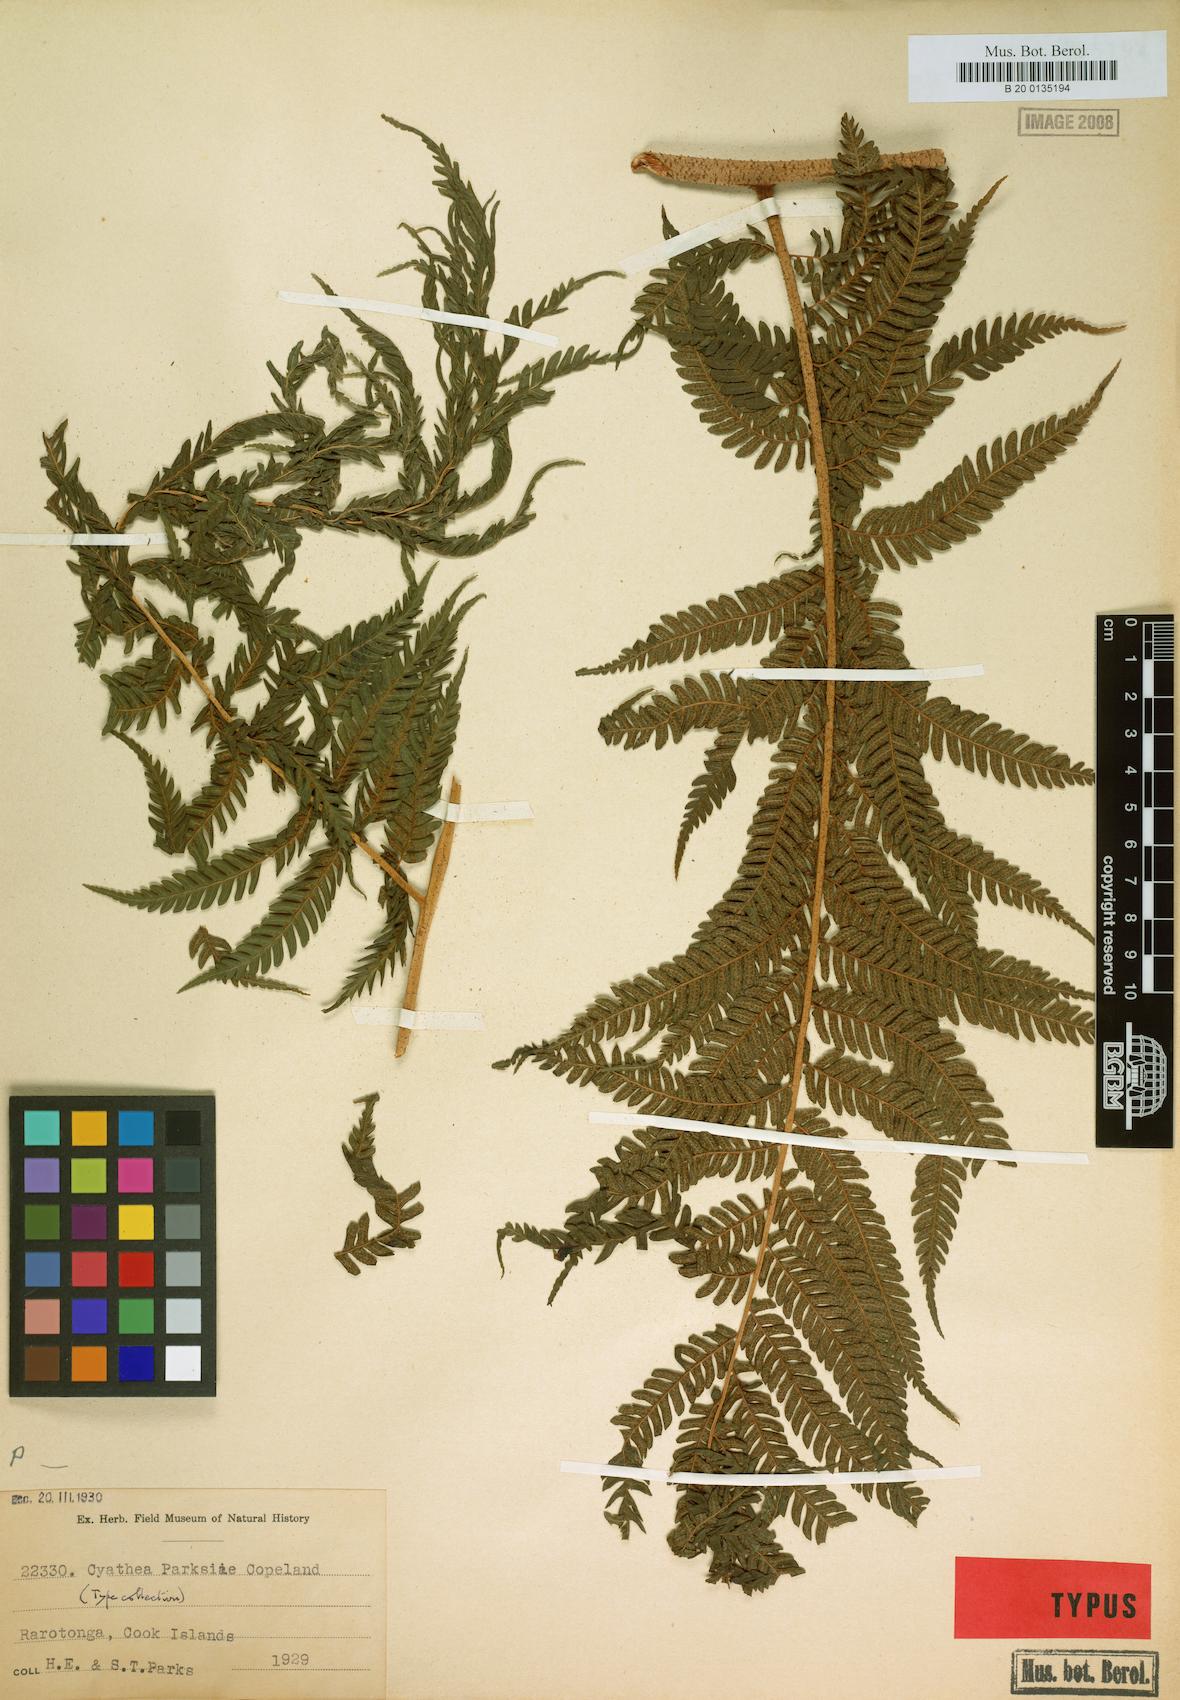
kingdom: Plantae
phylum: Tracheophyta
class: Polypodiopsida
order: Cyatheales
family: Cyatheaceae
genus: Sphaeropteris
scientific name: Sphaeropteris parksiae
